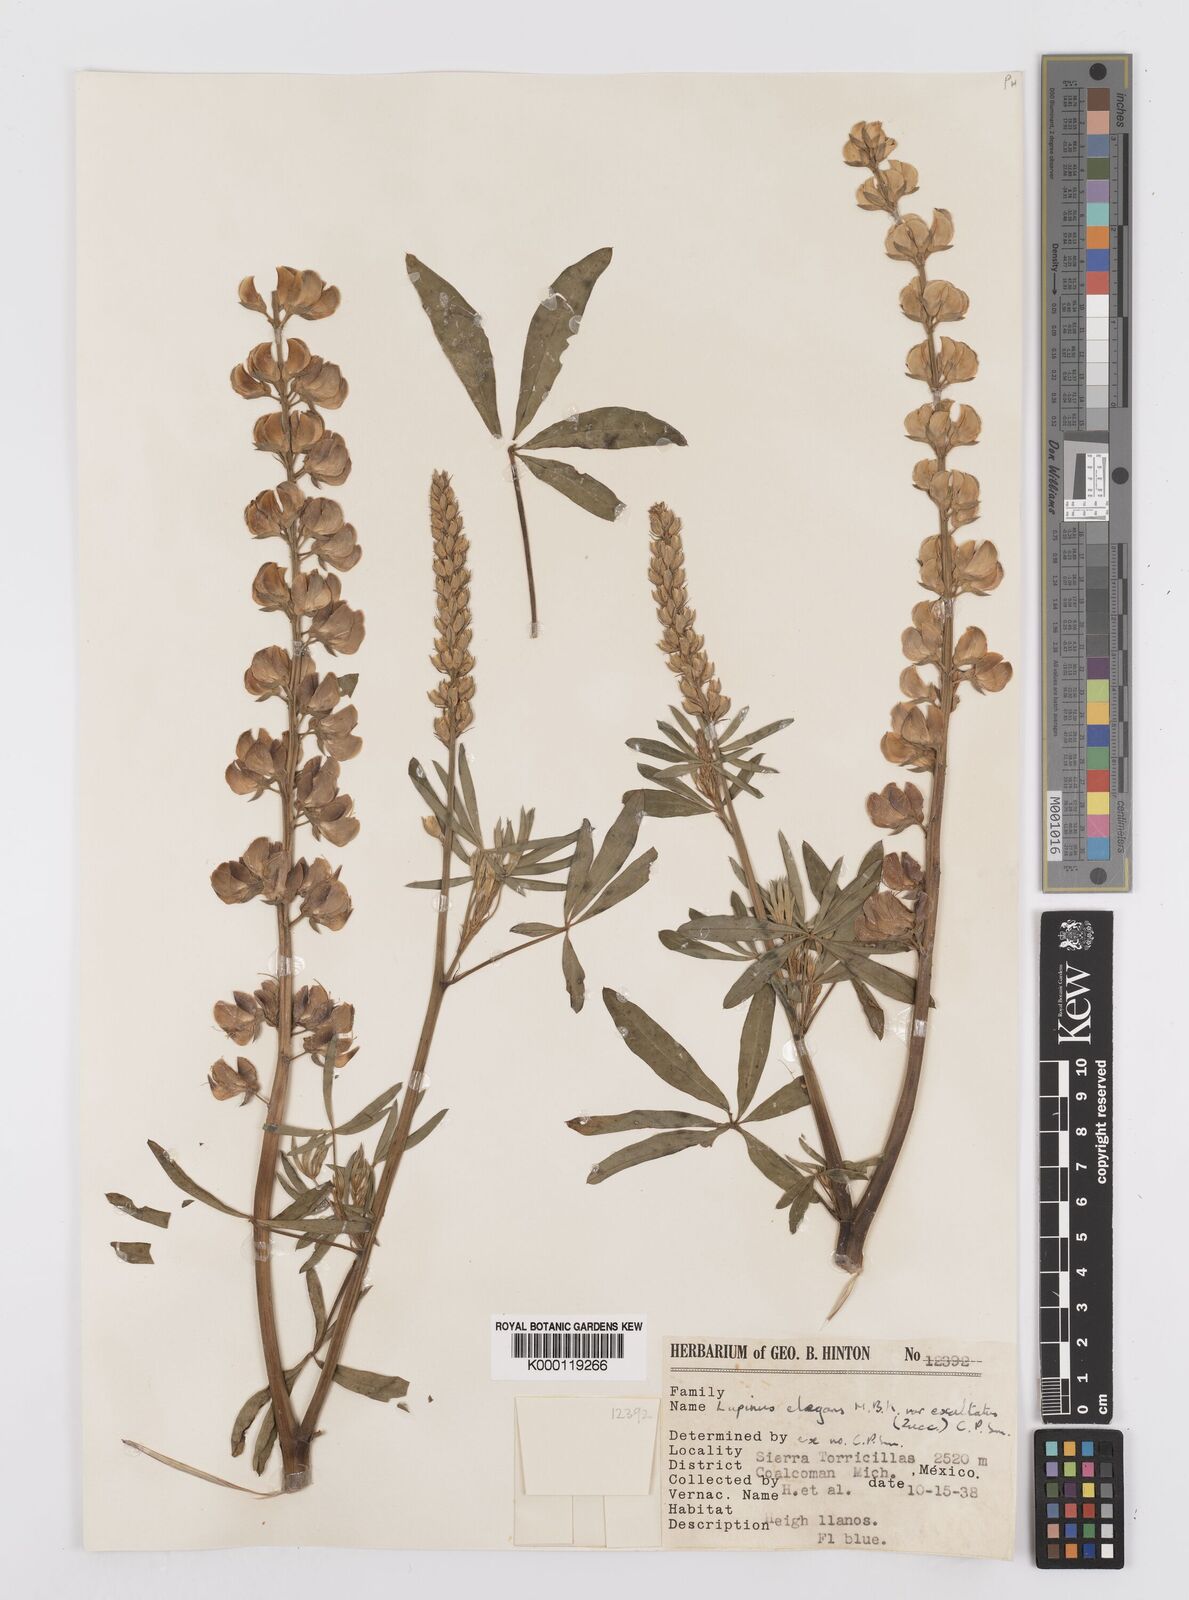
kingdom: Plantae
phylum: Tracheophyta
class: Magnoliopsida
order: Fabales
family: Fabaceae
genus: Lupinus
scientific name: Lupinus elegans
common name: Mexican lupine
